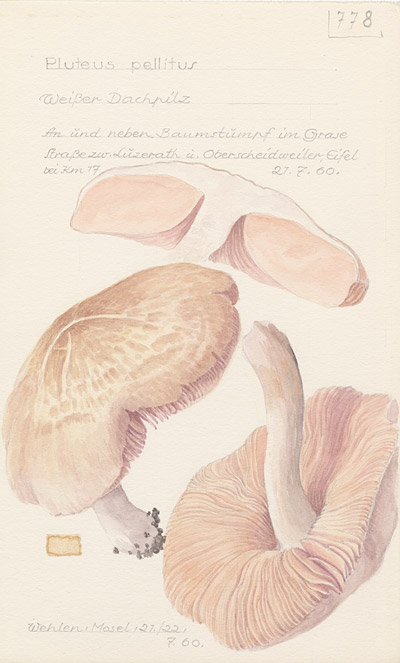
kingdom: Fungi
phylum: Basidiomycota
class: Agaricomycetes
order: Agaricales
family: Pluteaceae
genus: Pluteus
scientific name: Pluteus pellitus
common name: Ghost shield
